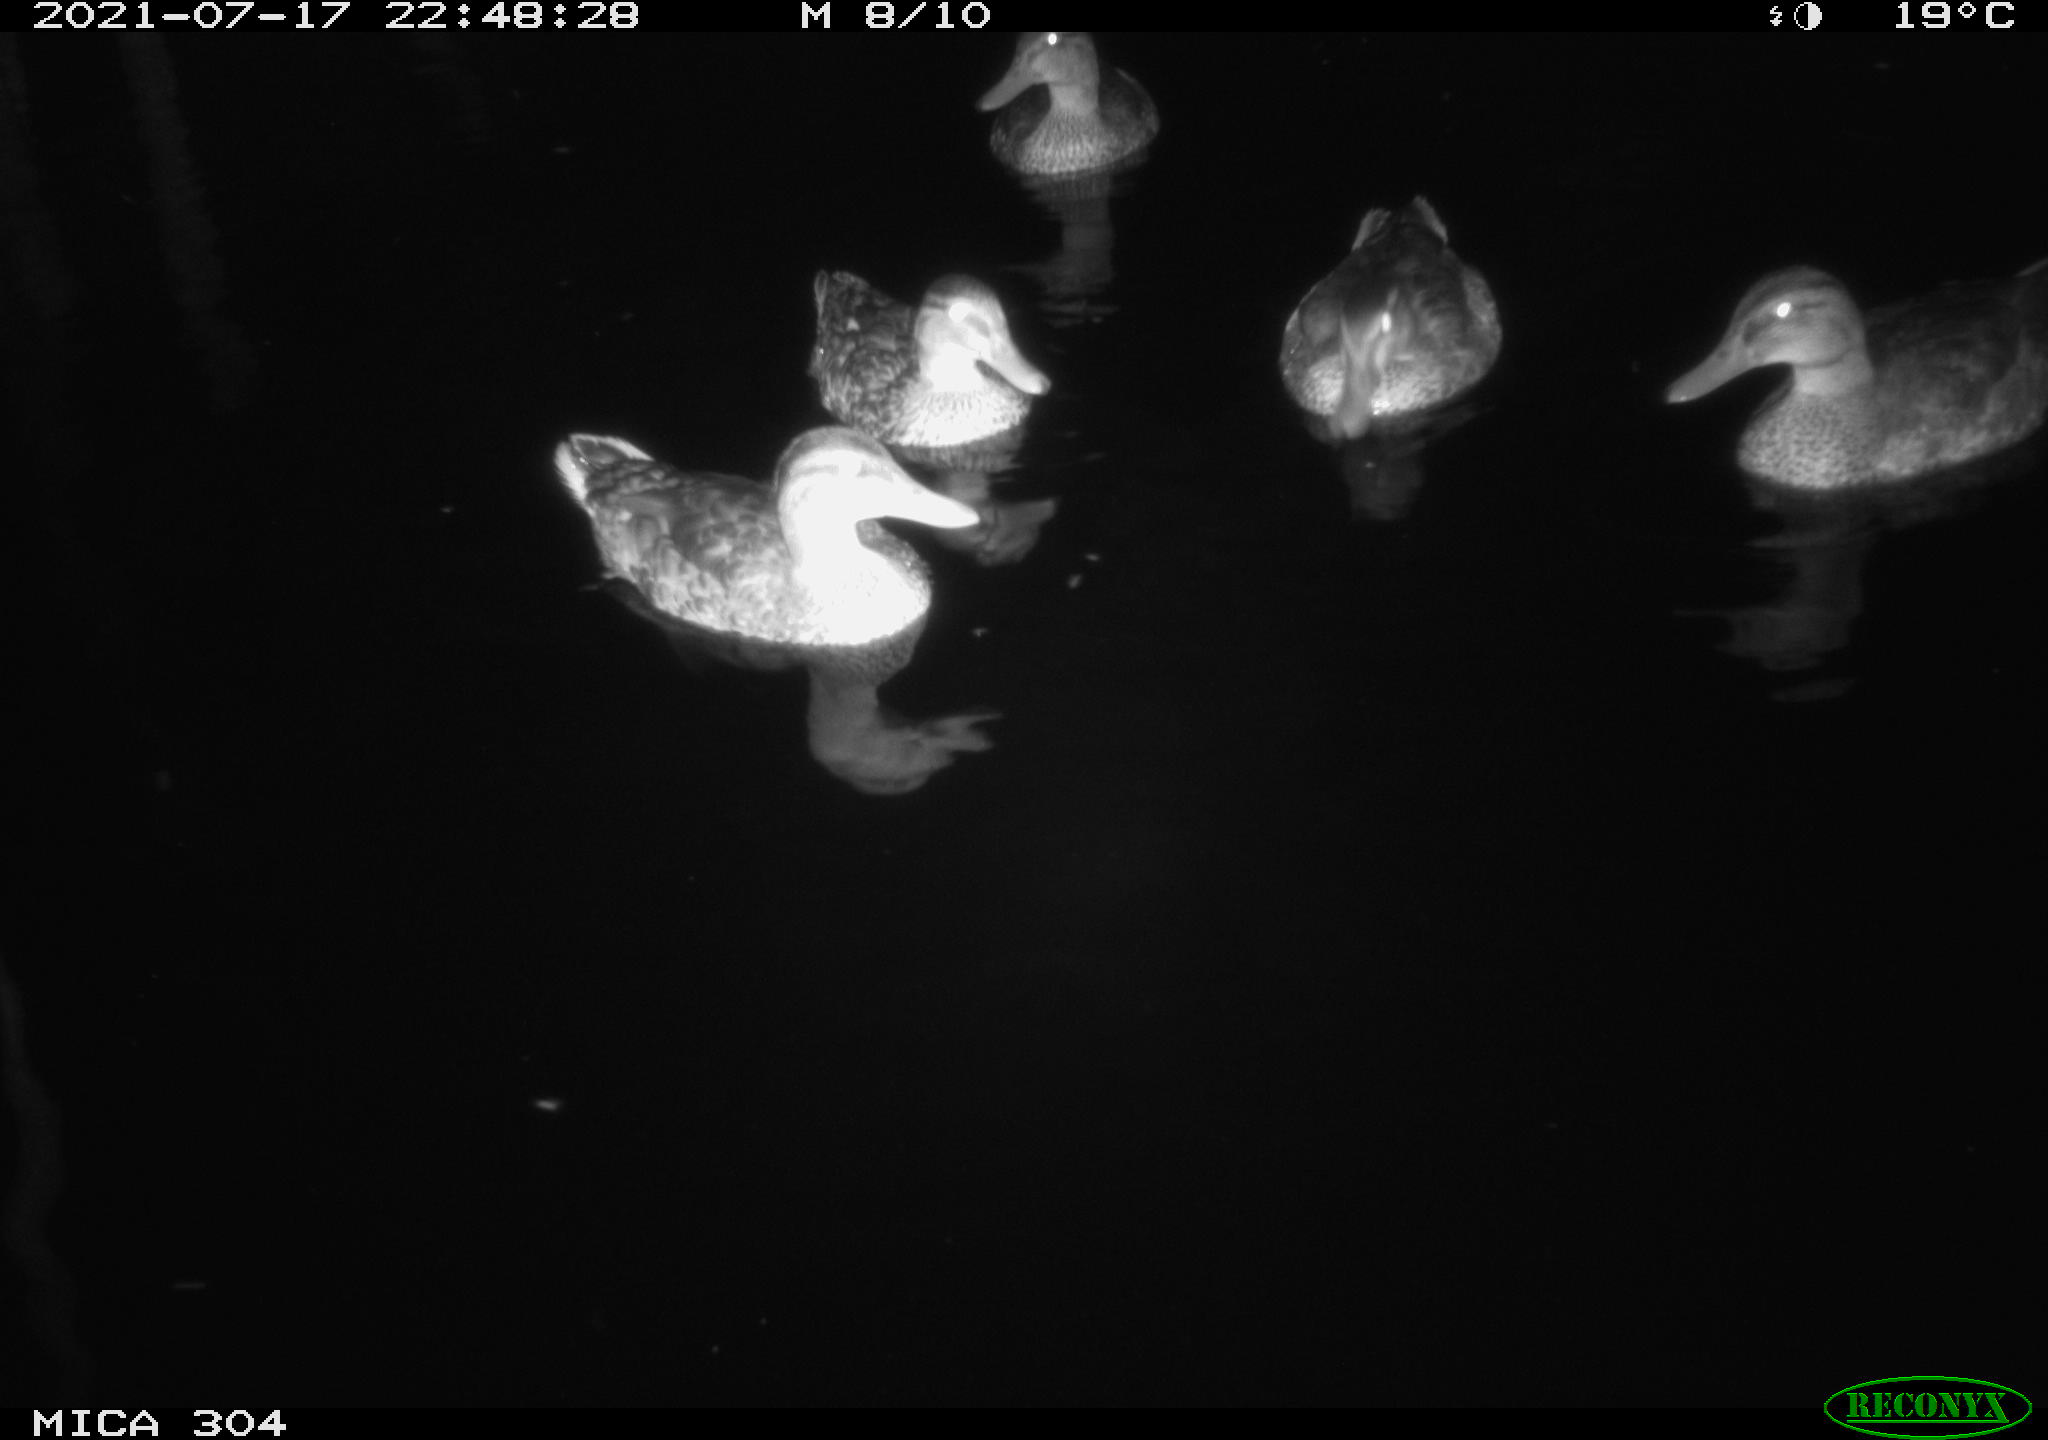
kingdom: Animalia
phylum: Chordata
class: Aves
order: Anseriformes
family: Anatidae
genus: Mareca
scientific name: Mareca strepera
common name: Gadwall
